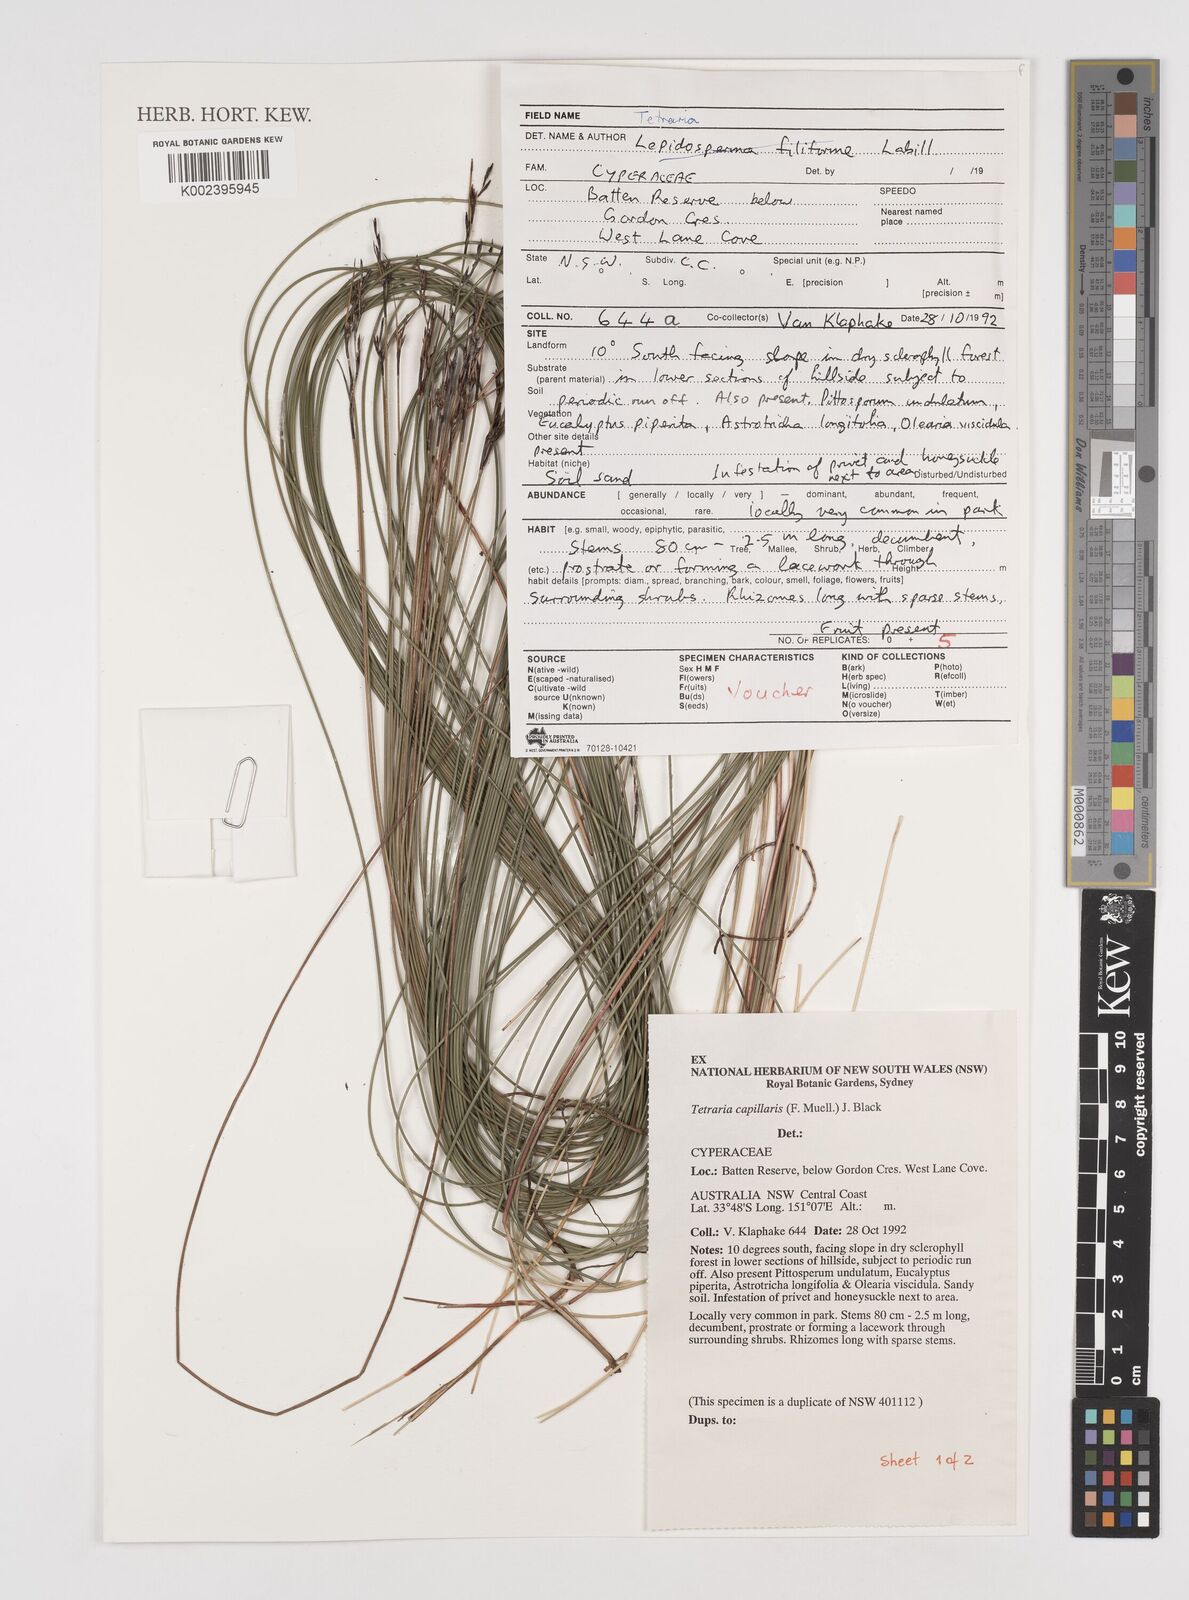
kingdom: Plantae
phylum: Tracheophyta
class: Liliopsida
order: Poales
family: Cyperaceae
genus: Tetraria
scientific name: Tetraria capillaris
